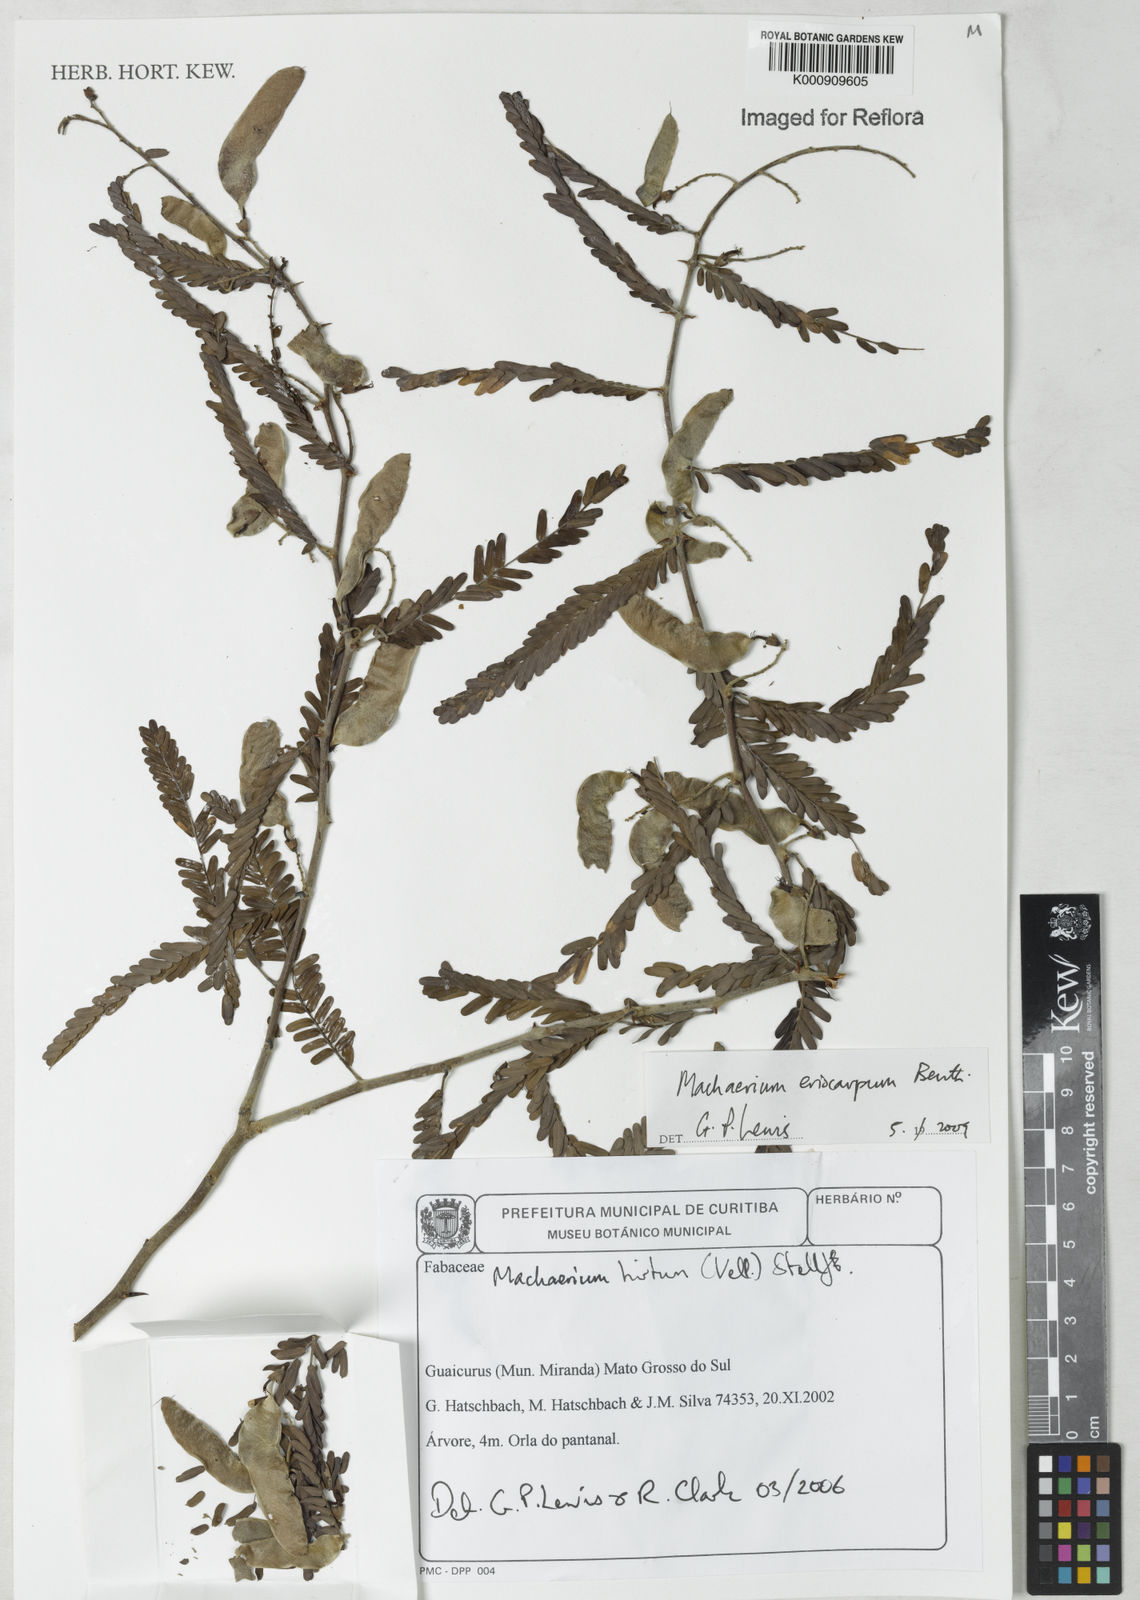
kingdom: Plantae
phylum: Tracheophyta
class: Magnoliopsida
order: Fabales
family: Fabaceae
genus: Machaerium
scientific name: Machaerium eriocarpum
